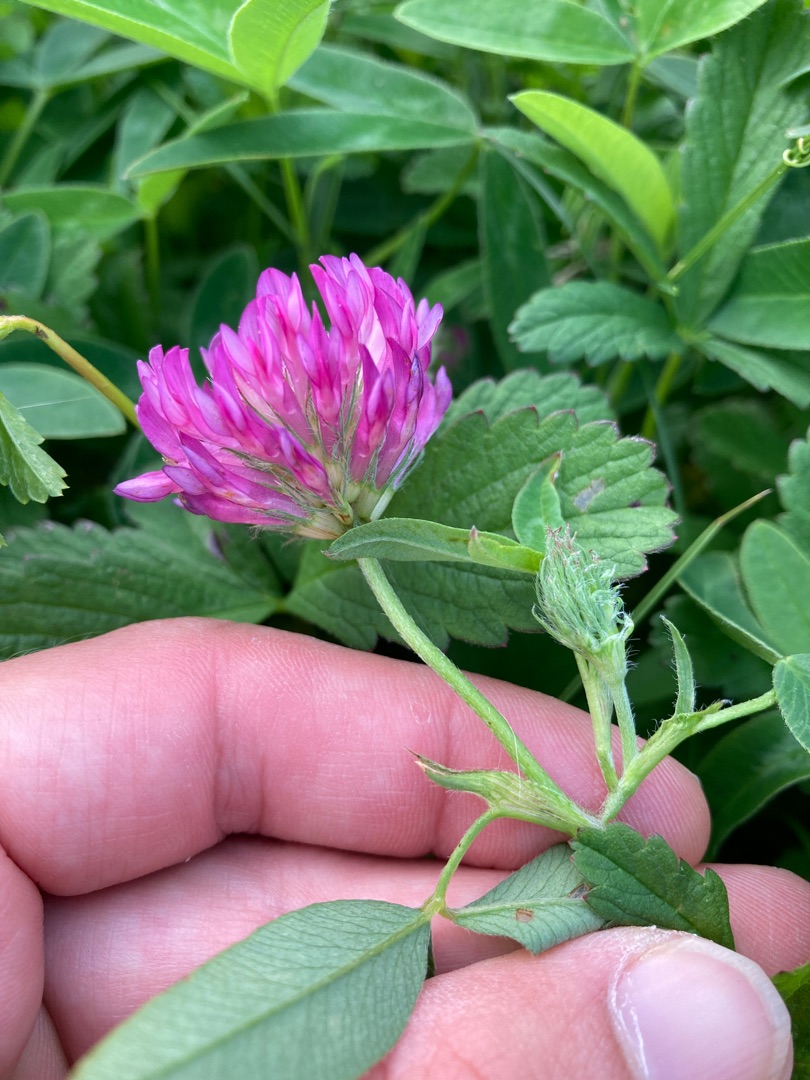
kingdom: Plantae
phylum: Tracheophyta
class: Magnoliopsida
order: Fabales
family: Fabaceae
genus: Trifolium
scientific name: Trifolium medium
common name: Bugtet kløver
